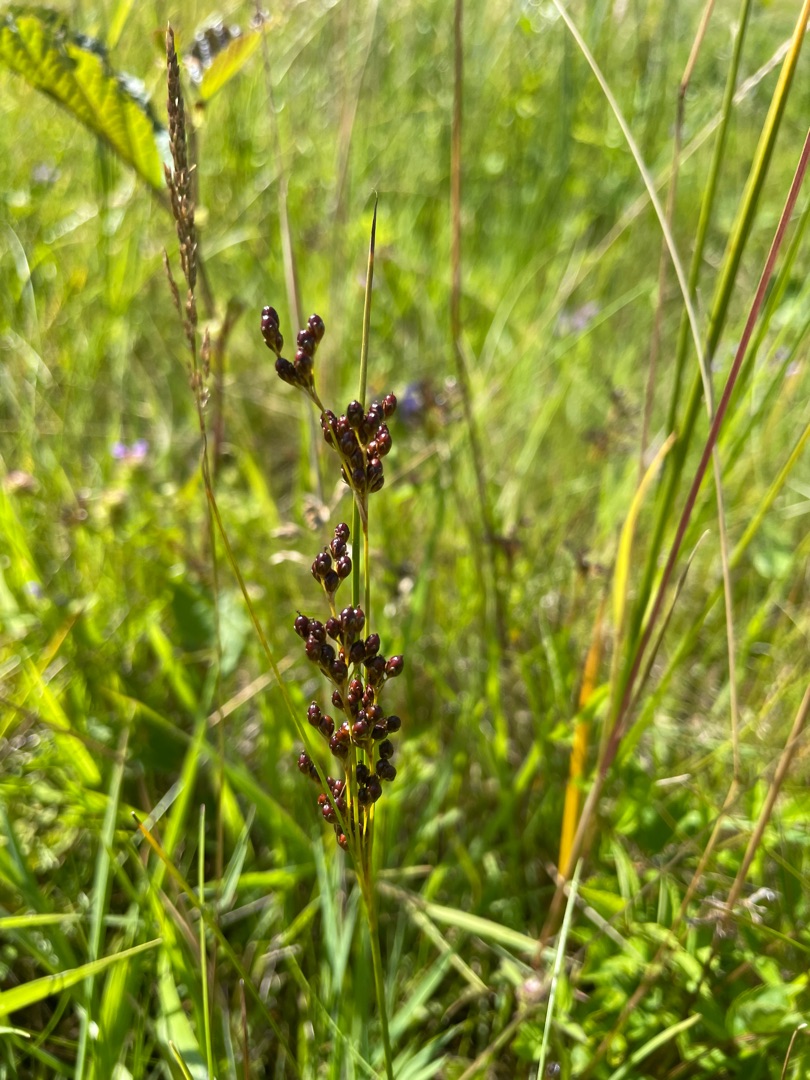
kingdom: Plantae
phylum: Tracheophyta
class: Liliopsida
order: Poales
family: Juncaceae
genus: Juncus
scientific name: Juncus compressus
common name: Fladstrået siv
